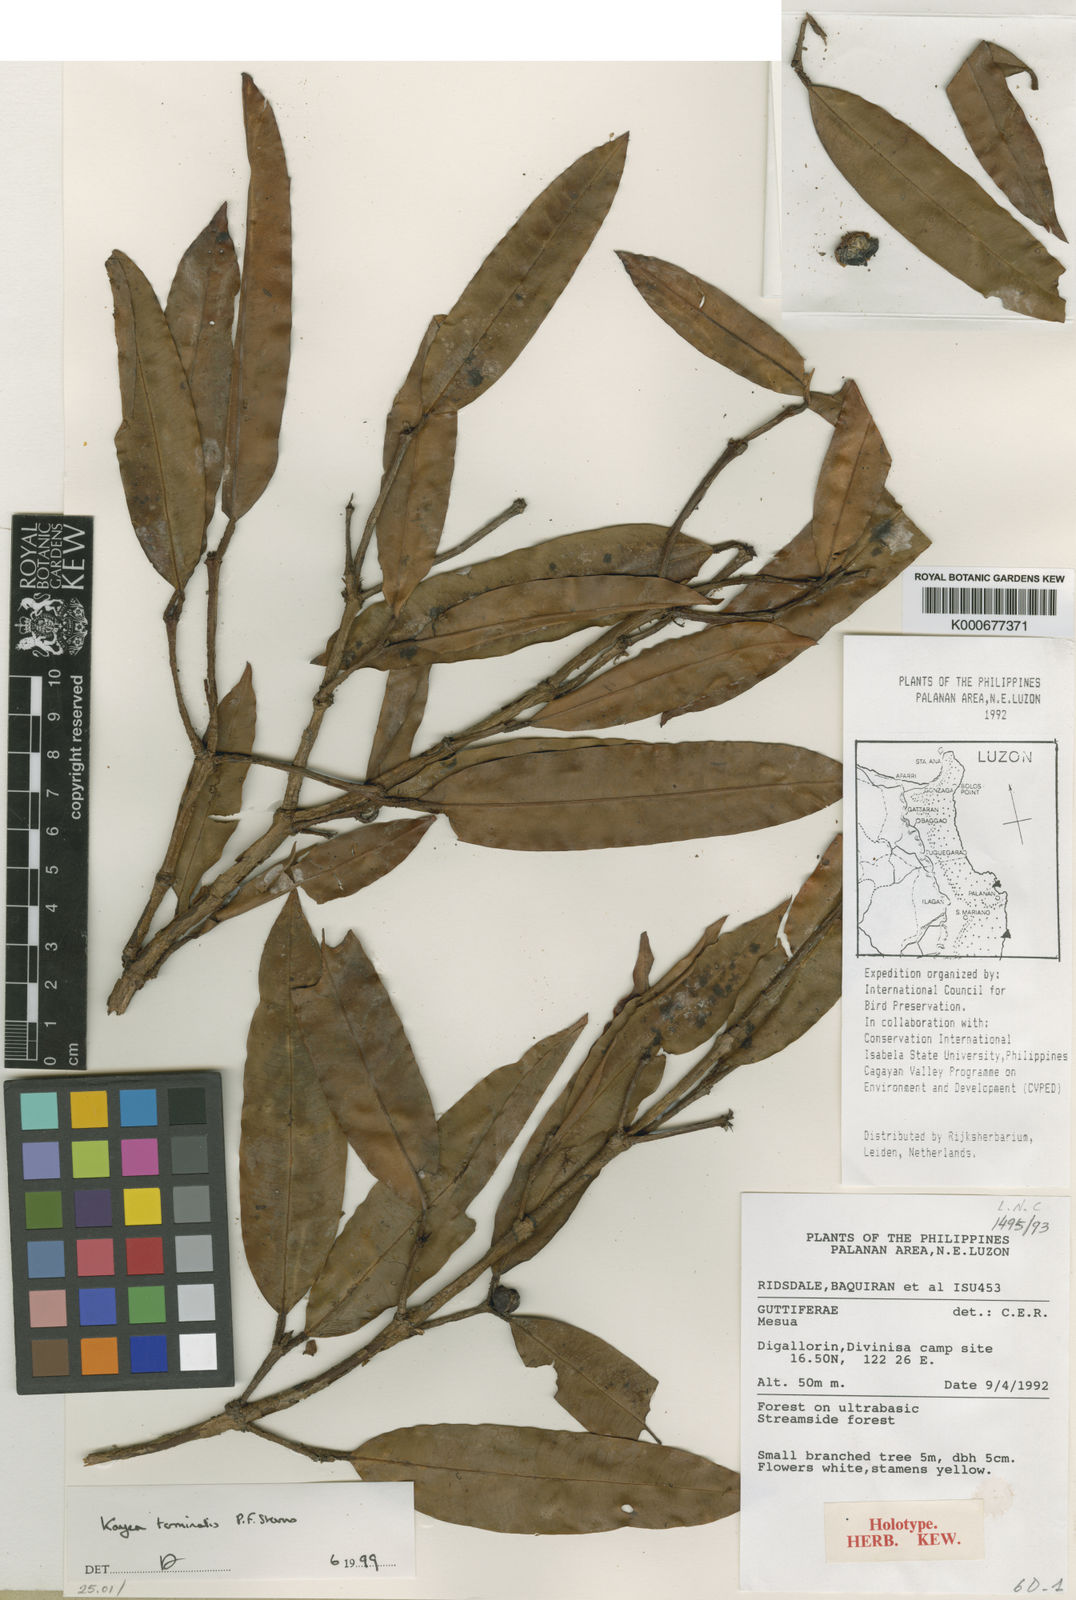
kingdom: Plantae
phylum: Tracheophyta
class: Magnoliopsida
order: Malpighiales
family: Calophyllaceae
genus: Kayea
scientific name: Kayea
